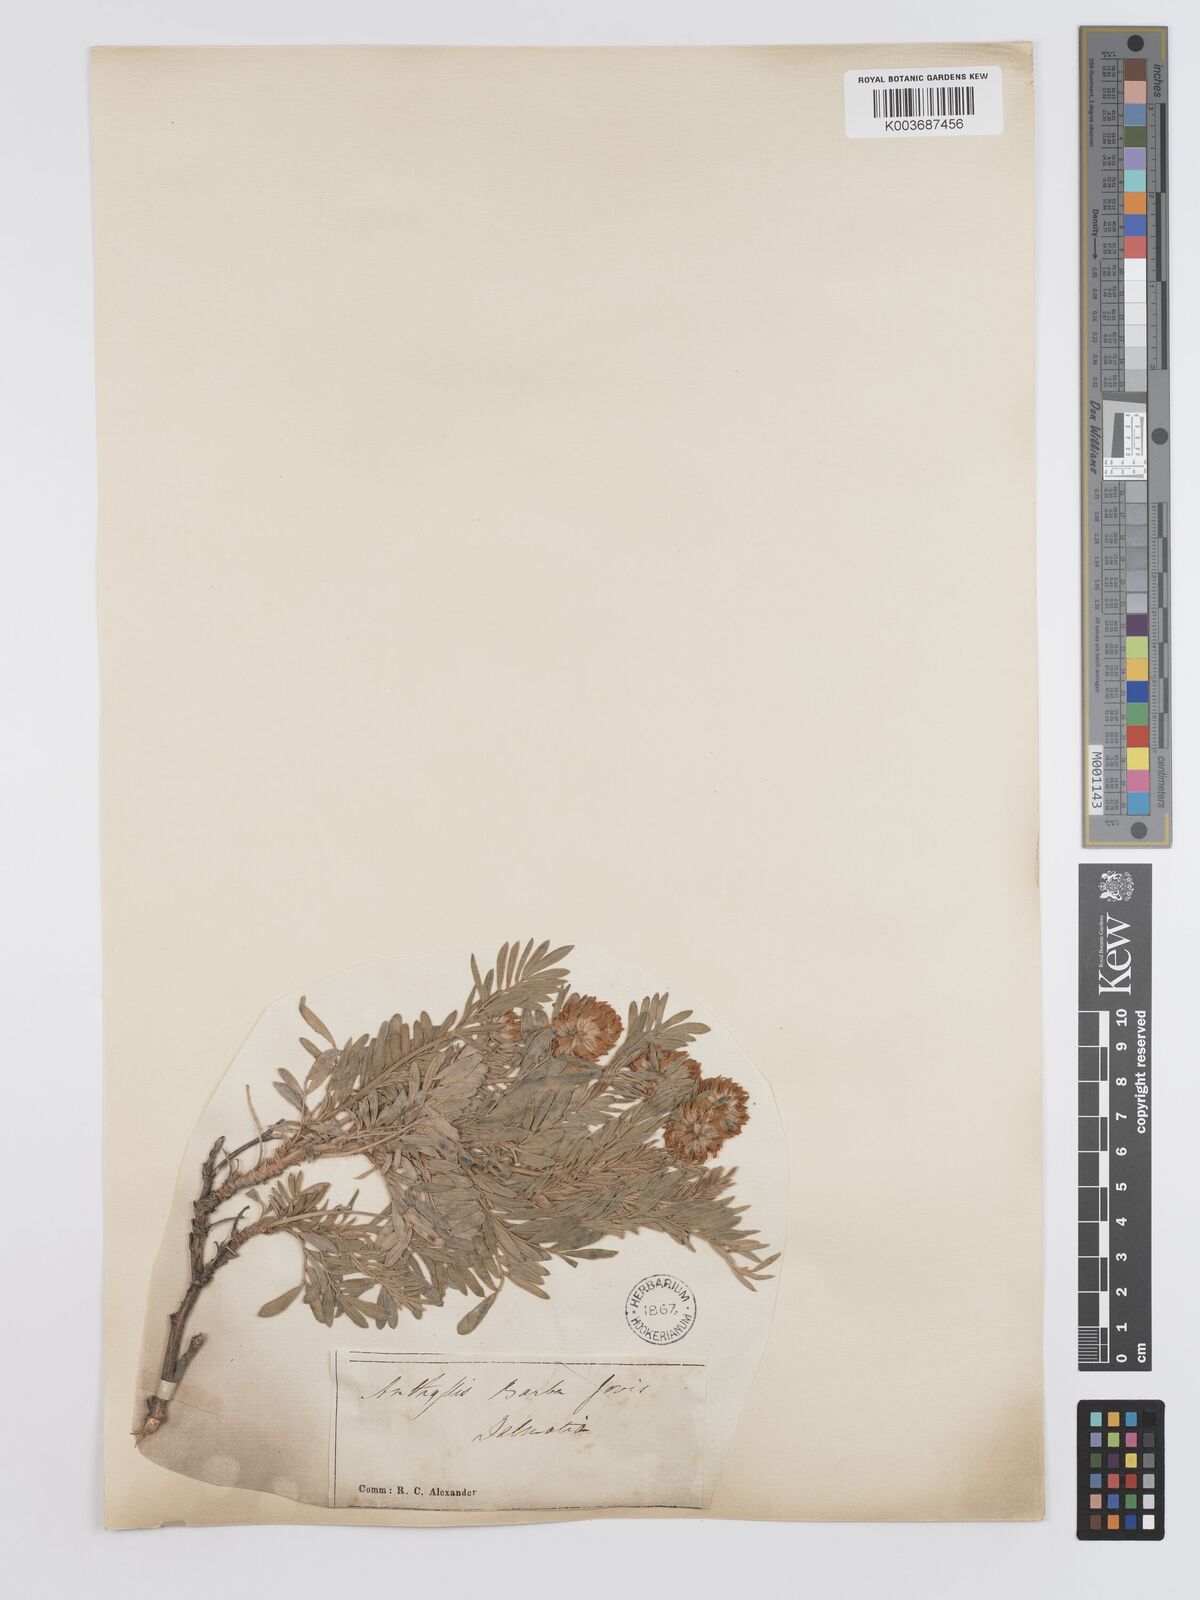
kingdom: Plantae
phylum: Tracheophyta
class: Magnoliopsida
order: Fabales
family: Fabaceae
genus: Anthyllis
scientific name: Anthyllis barba-jovis
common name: Jupiter's-beard
